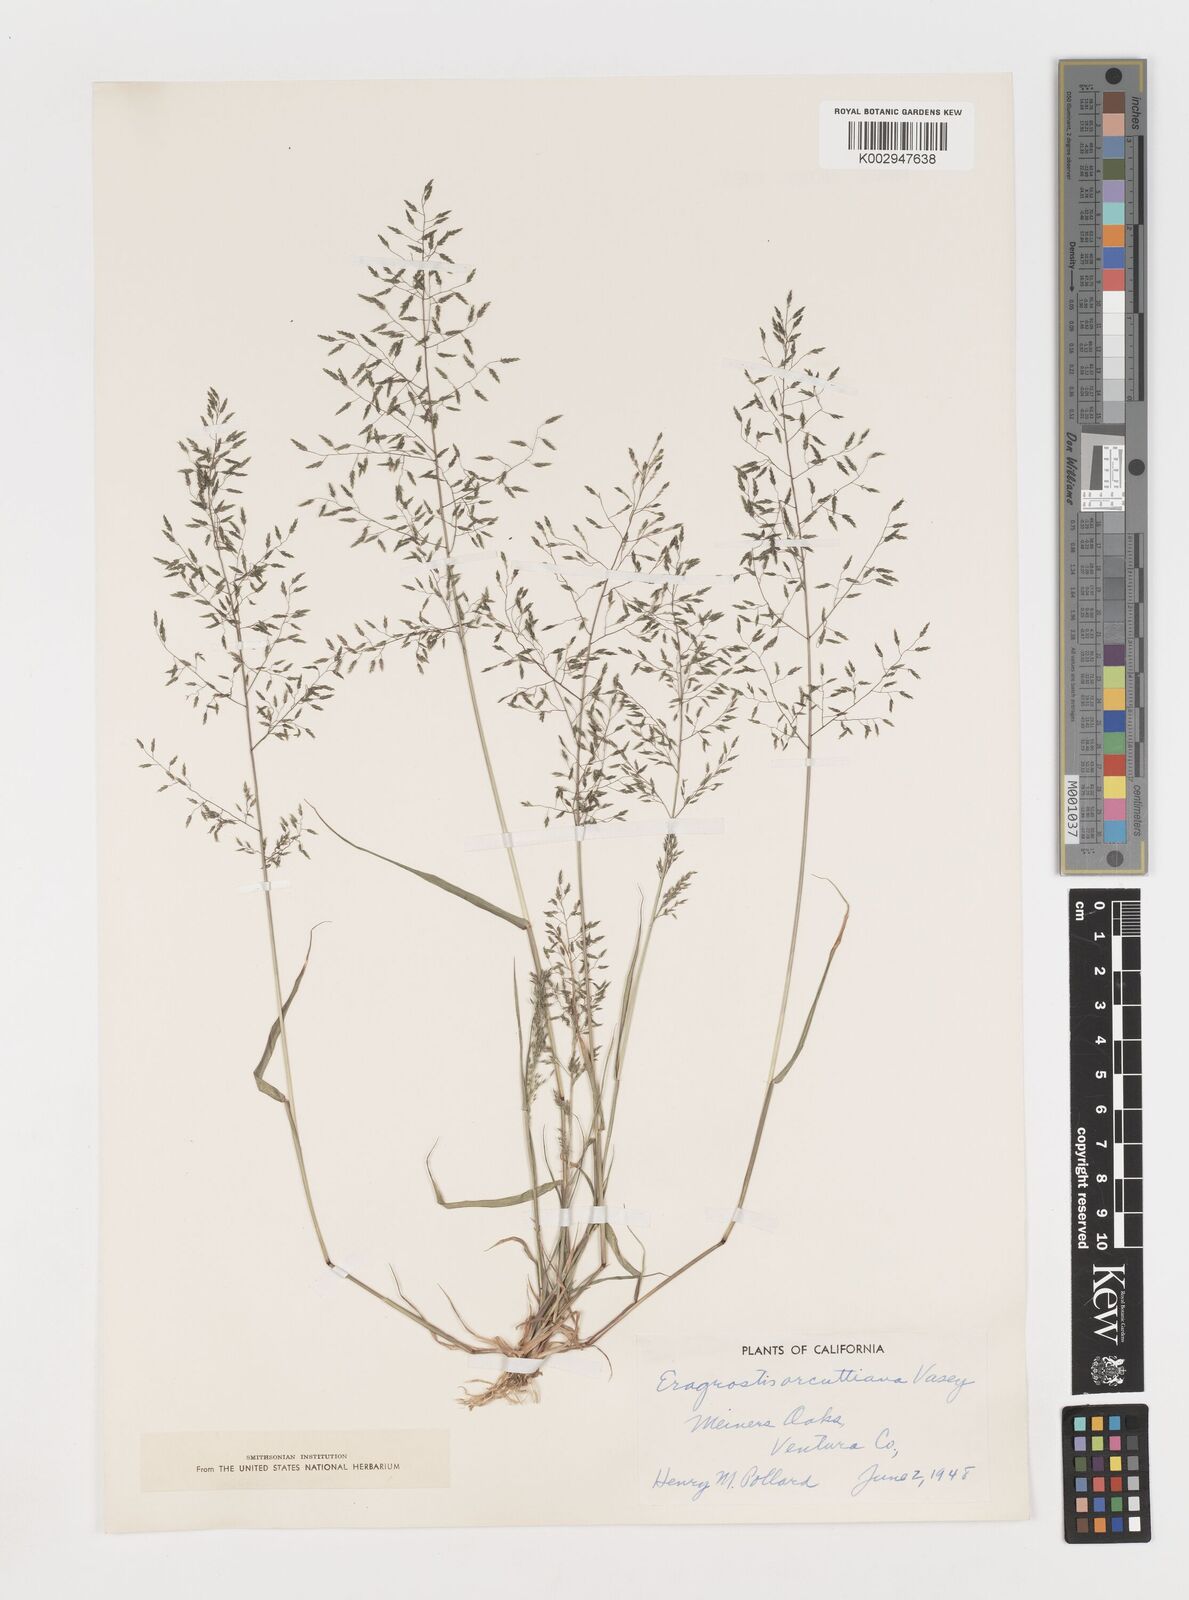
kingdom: Plantae
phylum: Tracheophyta
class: Liliopsida
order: Poales
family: Poaceae
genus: Eragrostis
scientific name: Eragrostis mexicana
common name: Mexican love grass
